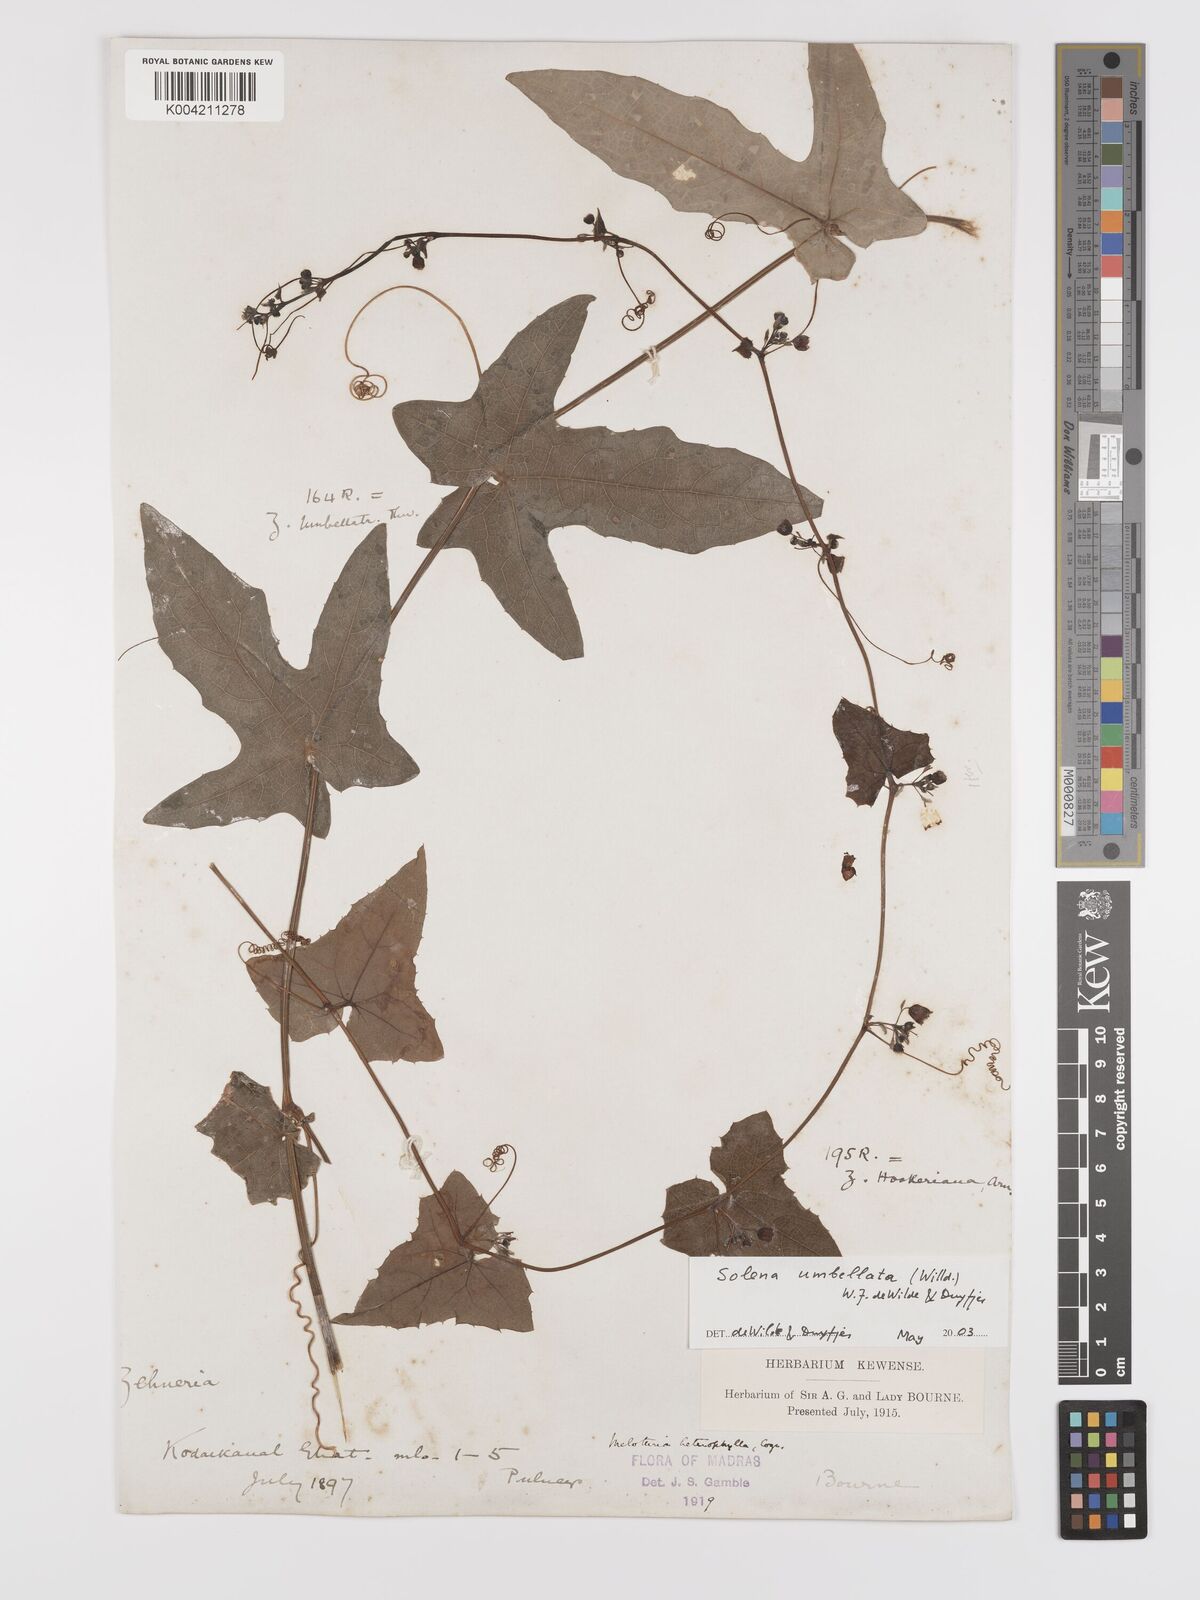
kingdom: Plantae
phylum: Tracheophyta
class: Magnoliopsida
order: Cucurbitales
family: Cucurbitaceae
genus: Solena
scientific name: Solena amplexicaulis
